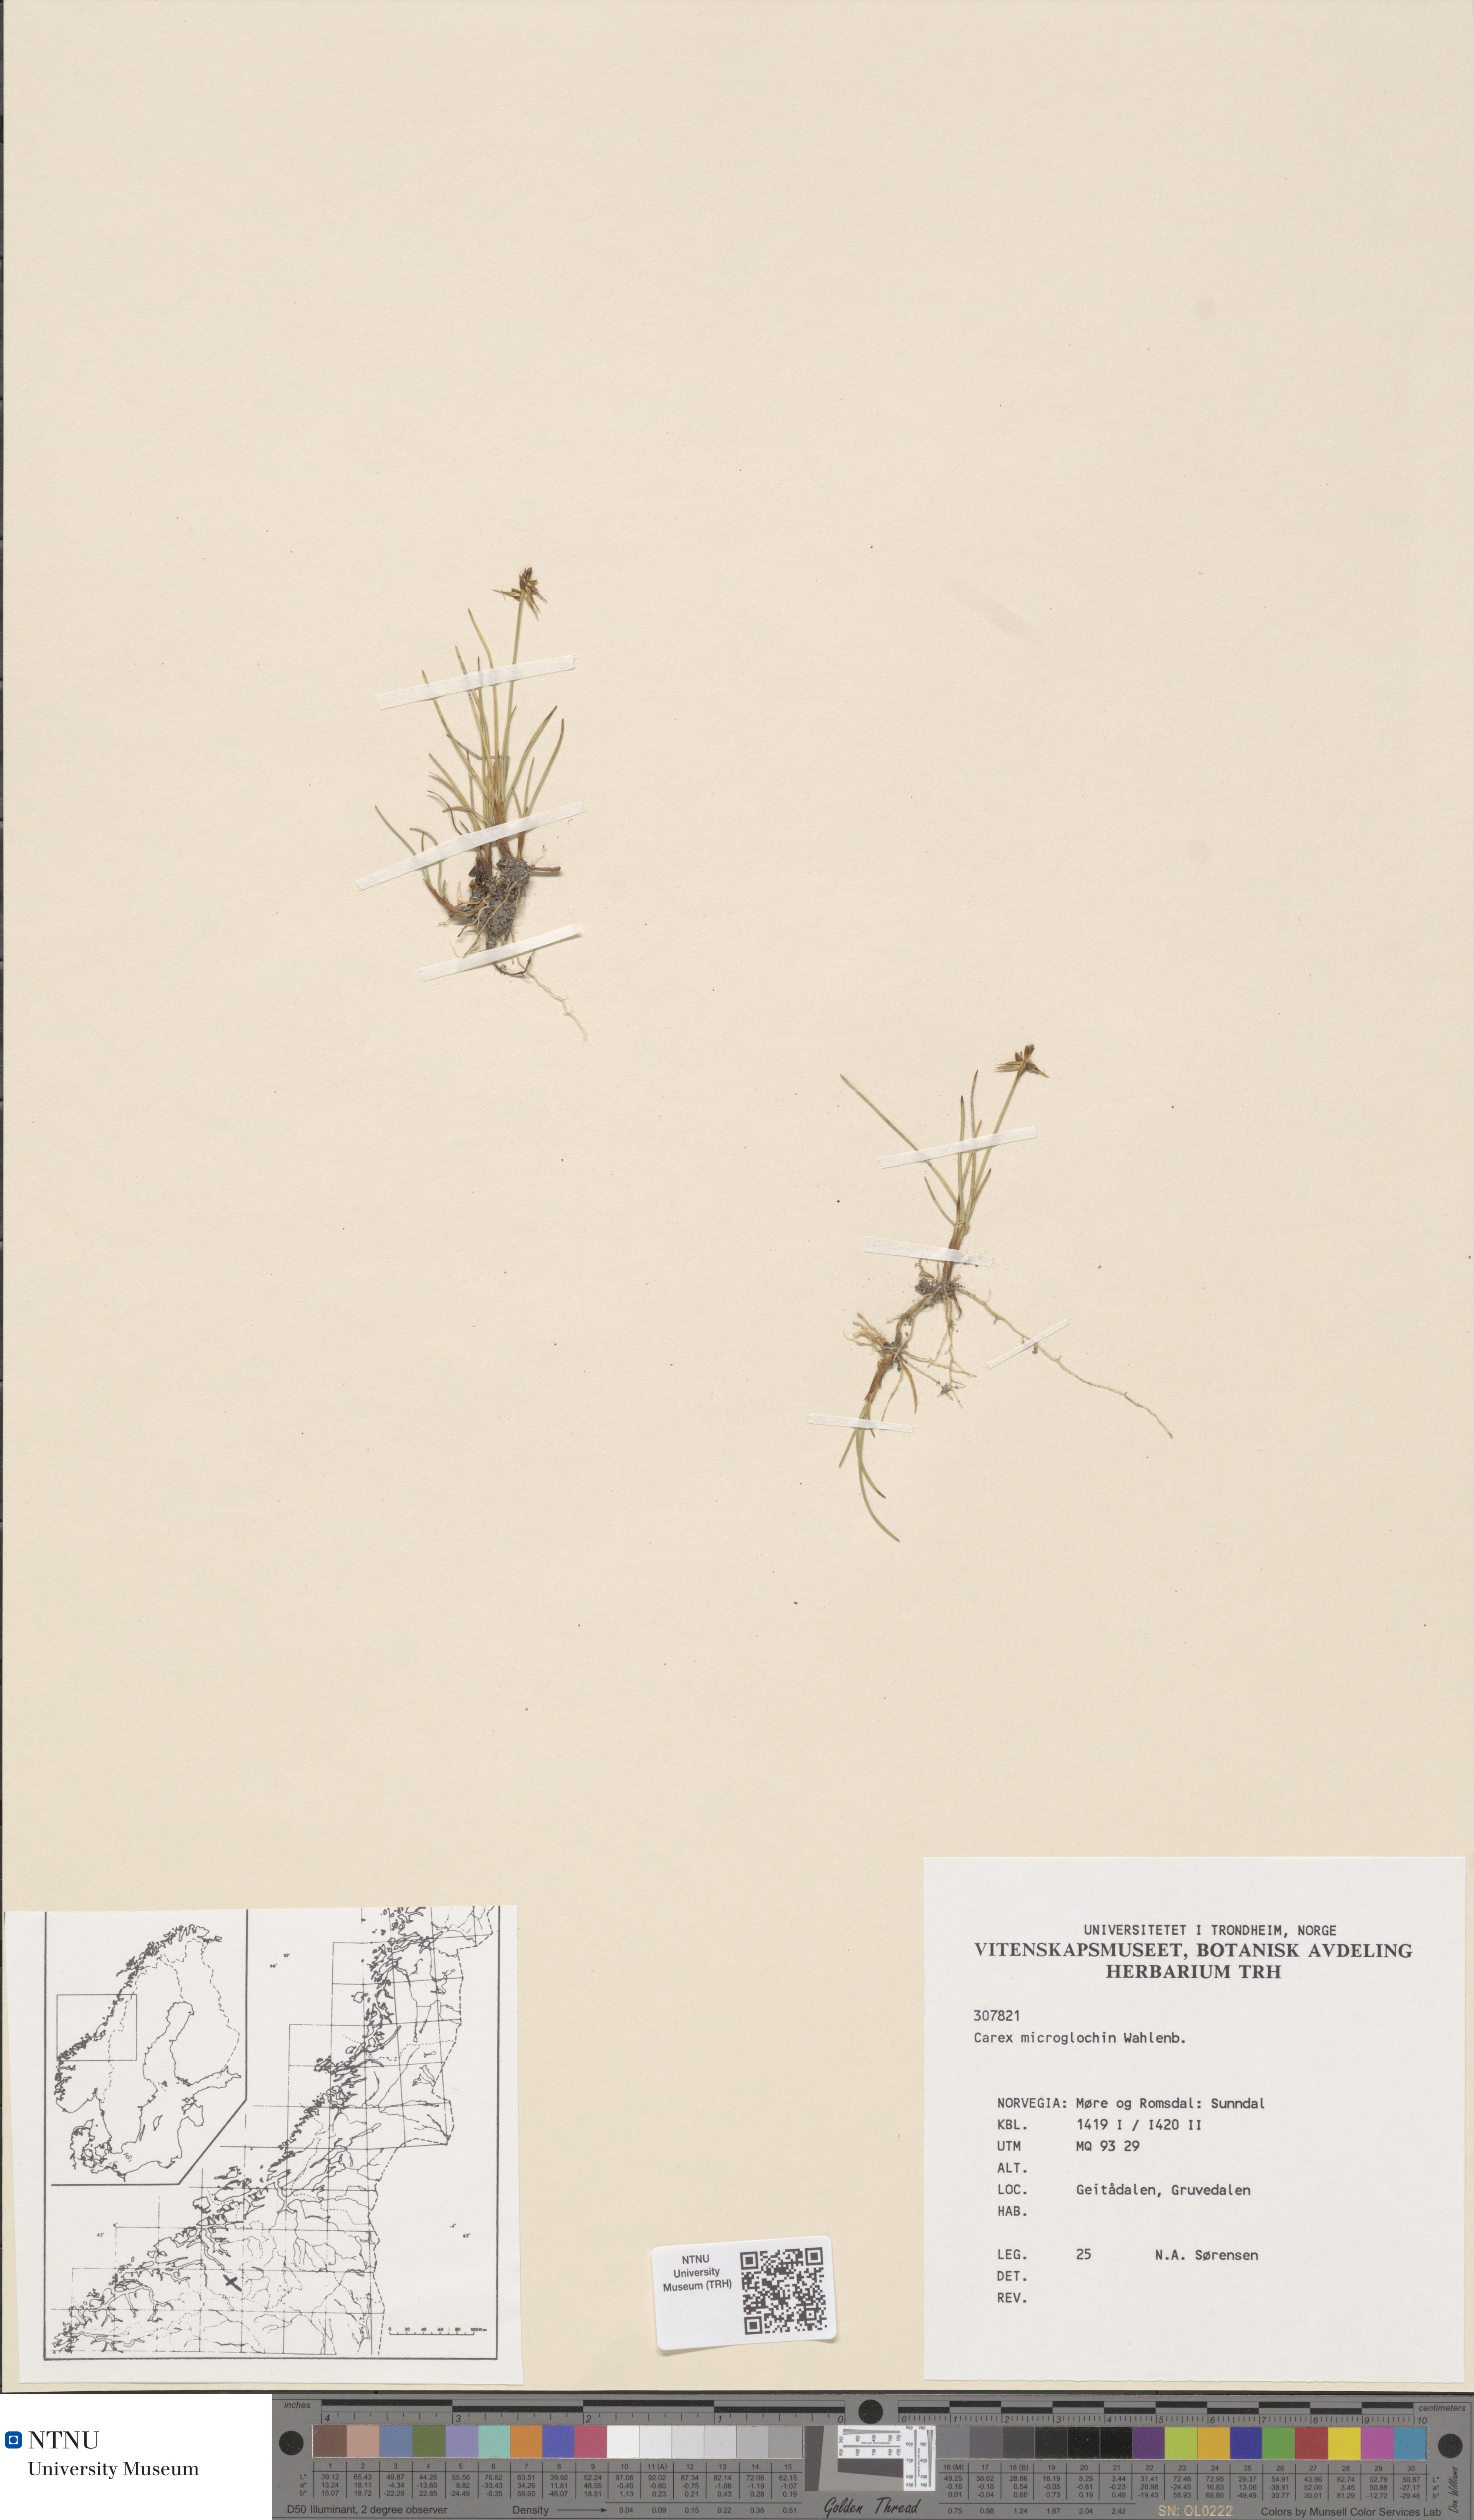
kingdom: Plantae
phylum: Tracheophyta
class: Liliopsida
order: Poales
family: Cyperaceae
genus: Carex
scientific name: Carex microglochin
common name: Bristle sedge
